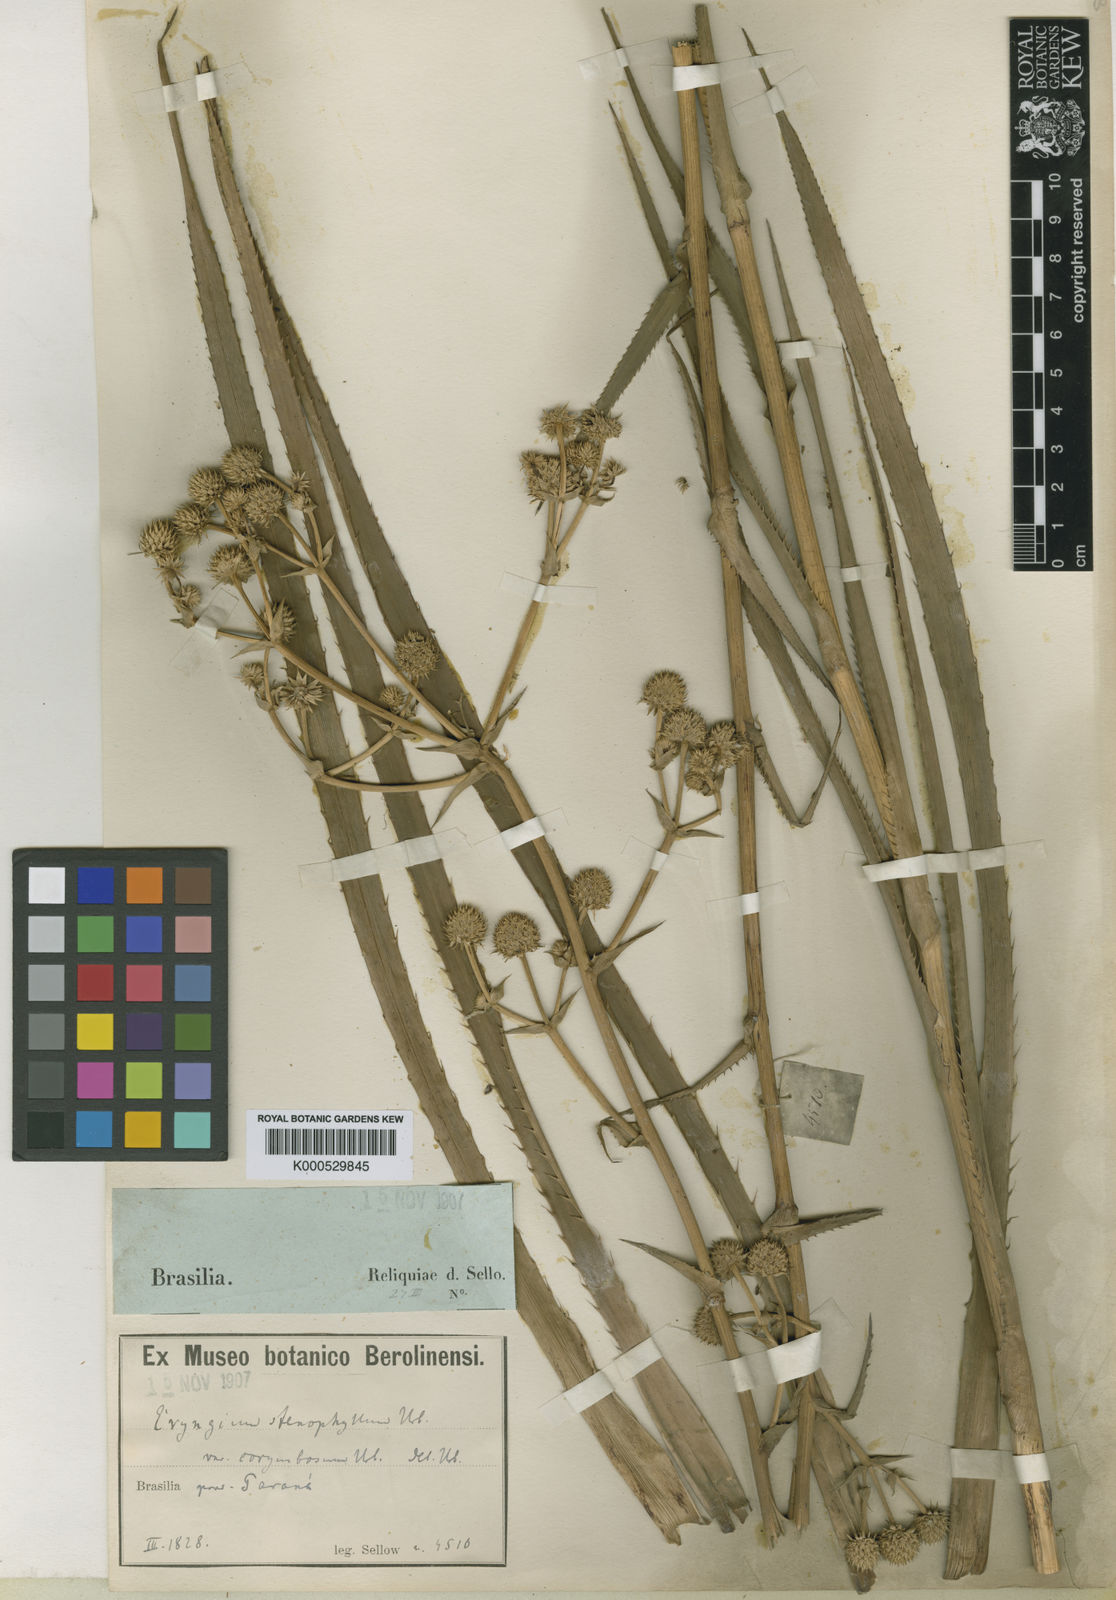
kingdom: Plantae
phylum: Tracheophyta
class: Magnoliopsida
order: Apiales
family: Apiaceae
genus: Eryngium
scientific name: Eryngium stenophyllum
